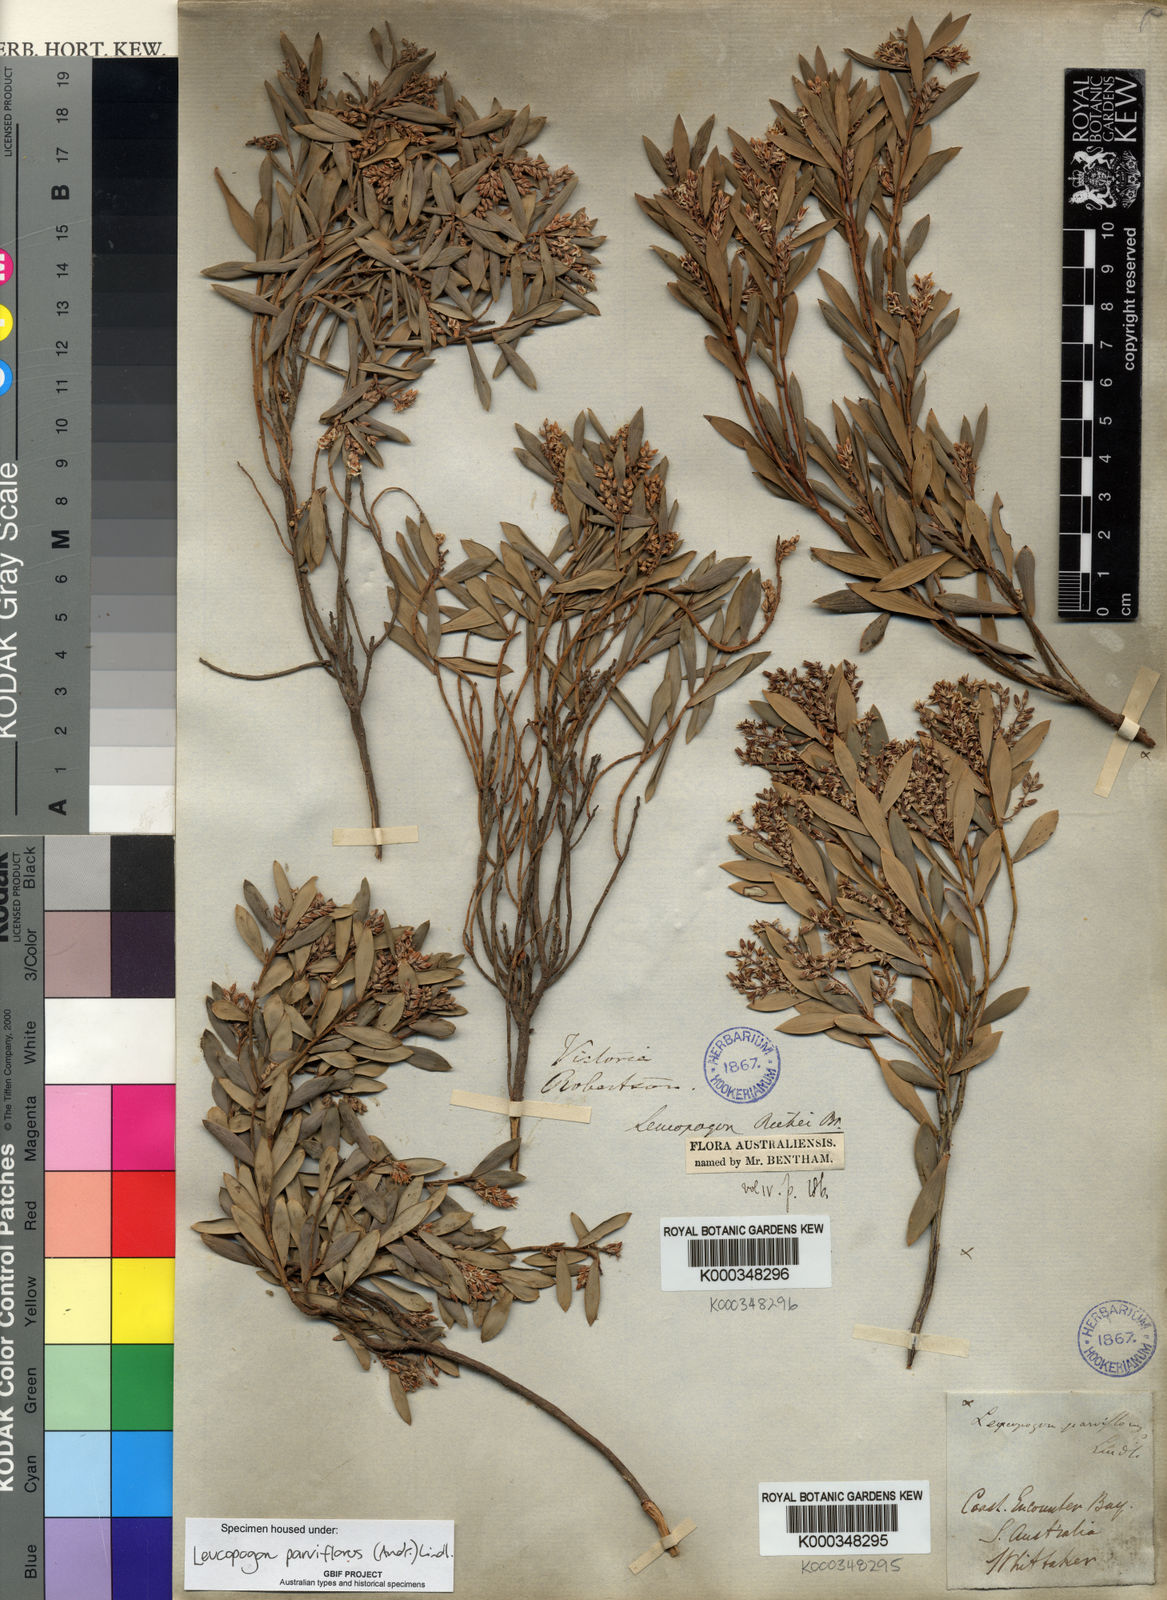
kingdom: Plantae
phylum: Tracheophyta
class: Magnoliopsida
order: Ericales
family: Ericaceae
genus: Leptecophylla
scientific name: Leptecophylla parvifolia
